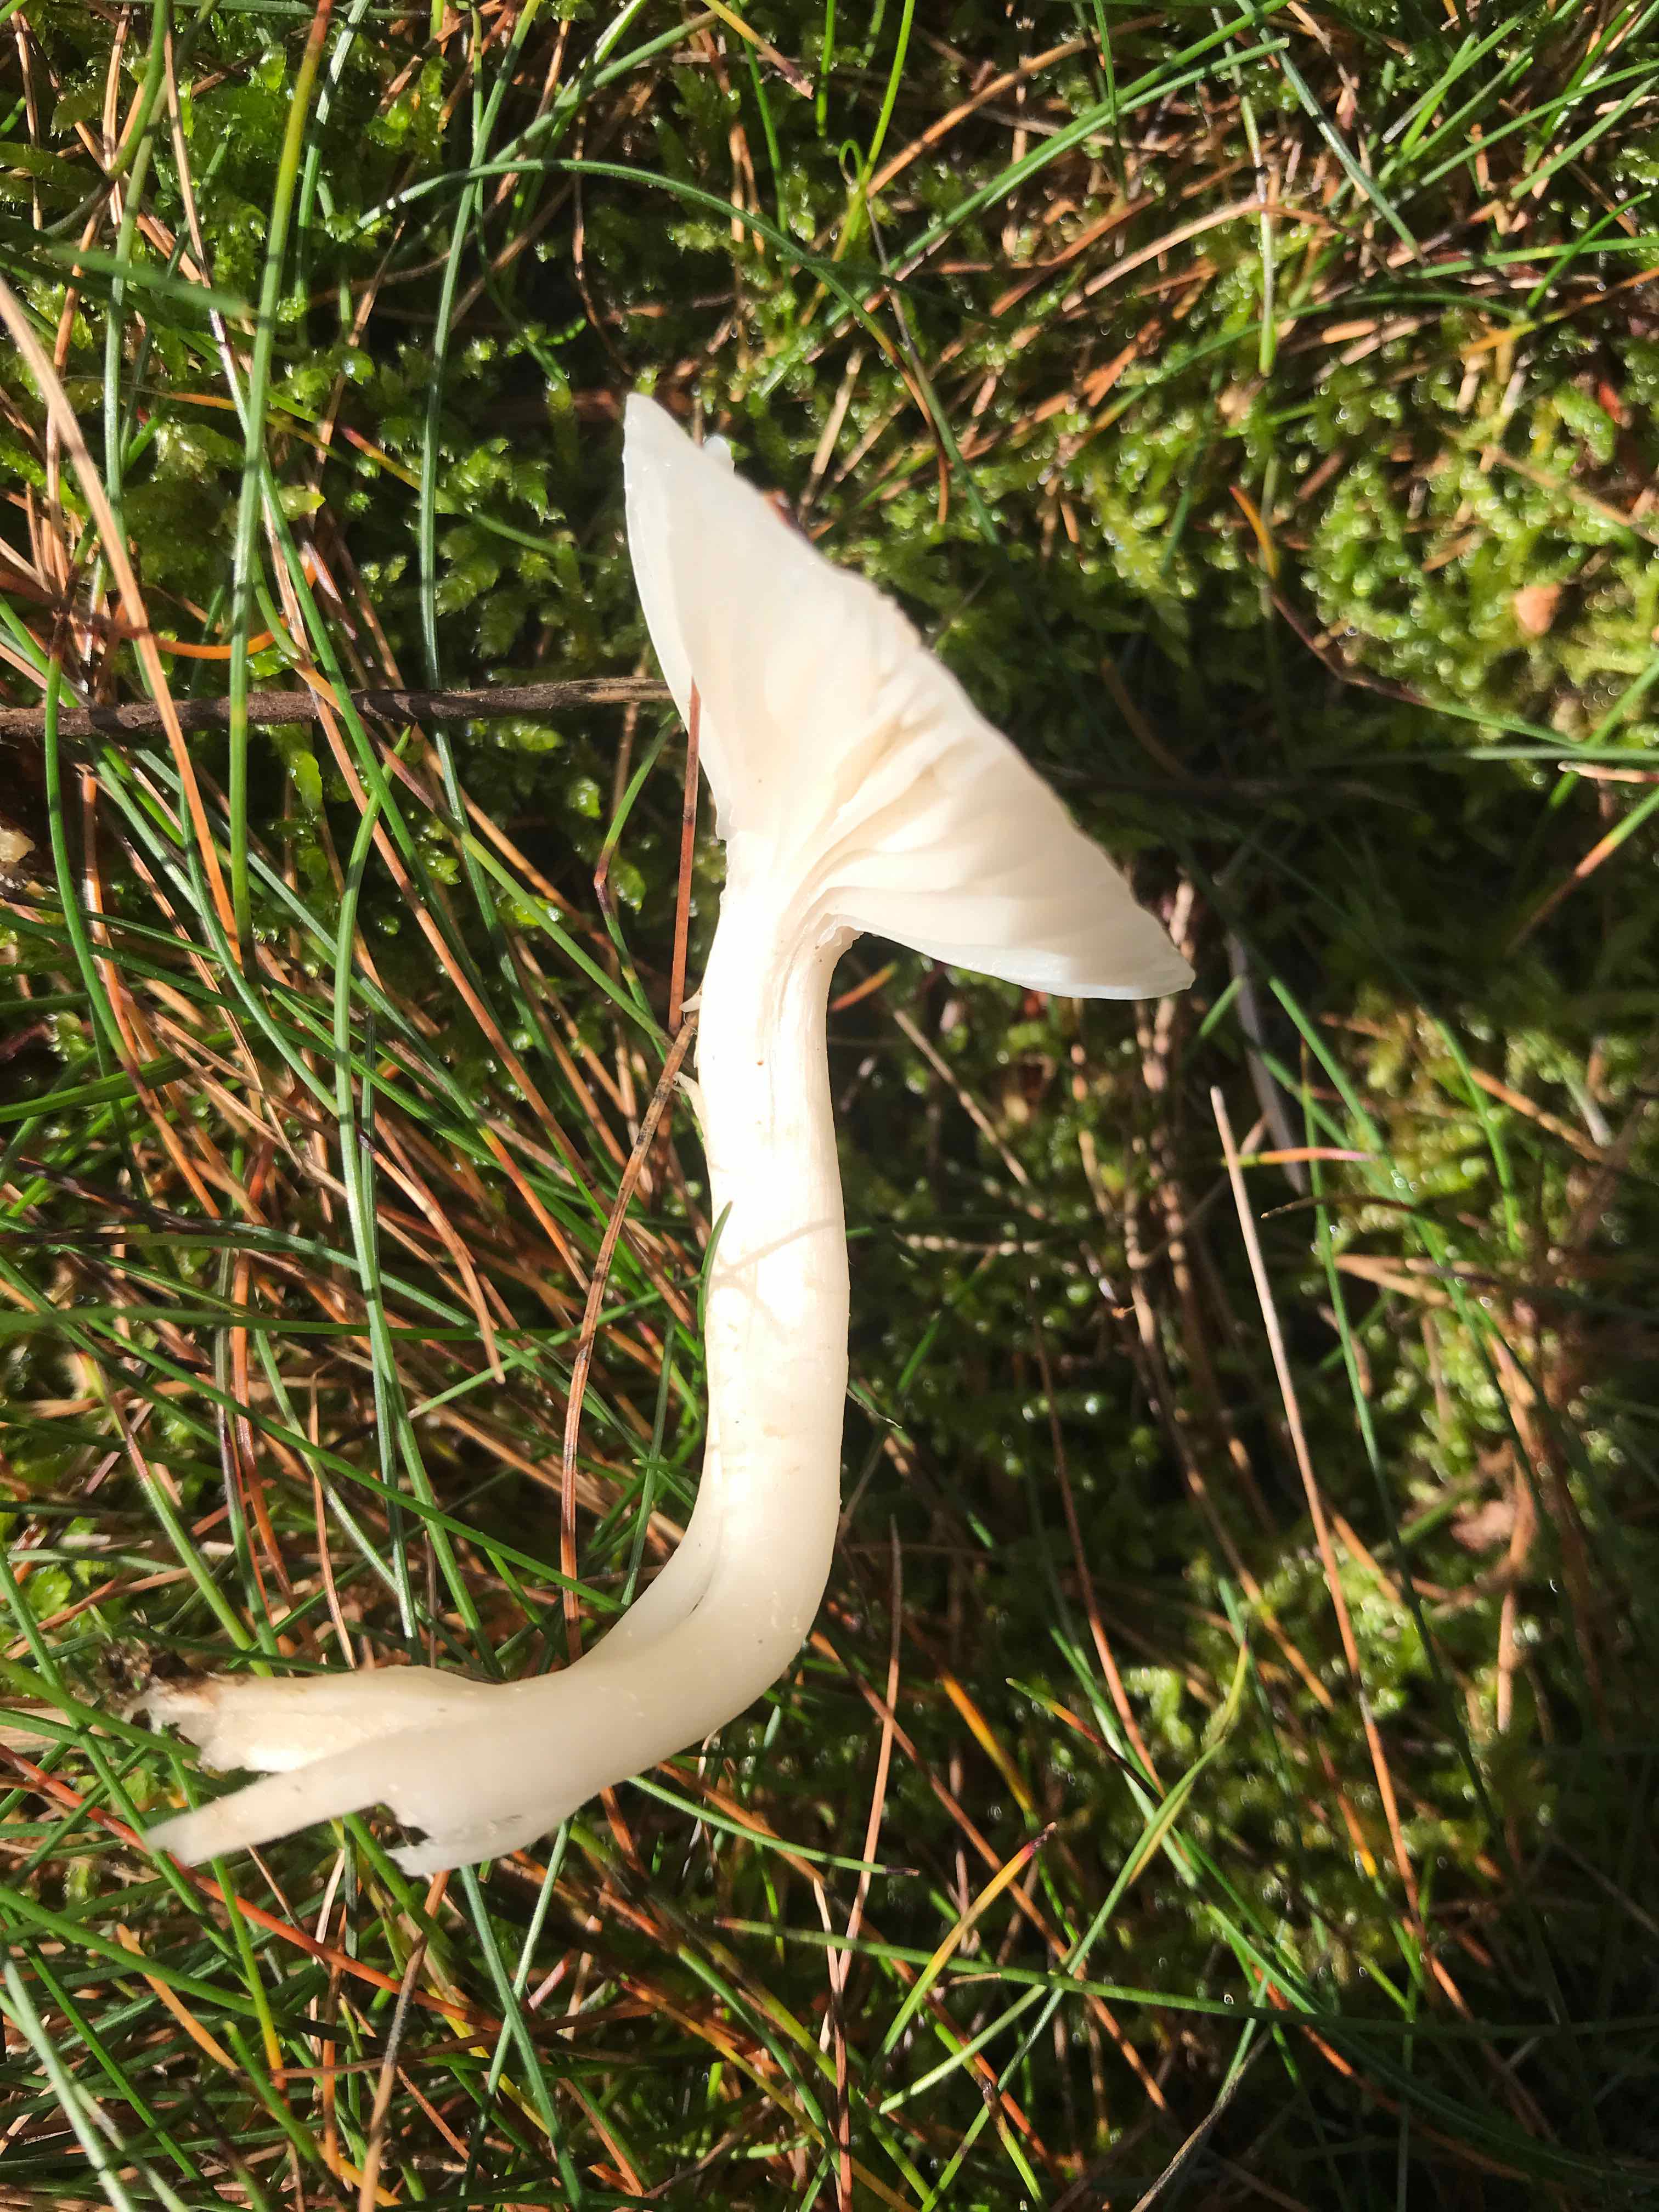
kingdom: Fungi
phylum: Basidiomycota
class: Agaricomycetes
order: Agaricales
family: Hygrophoraceae
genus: Cuphophyllus
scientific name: Cuphophyllus
